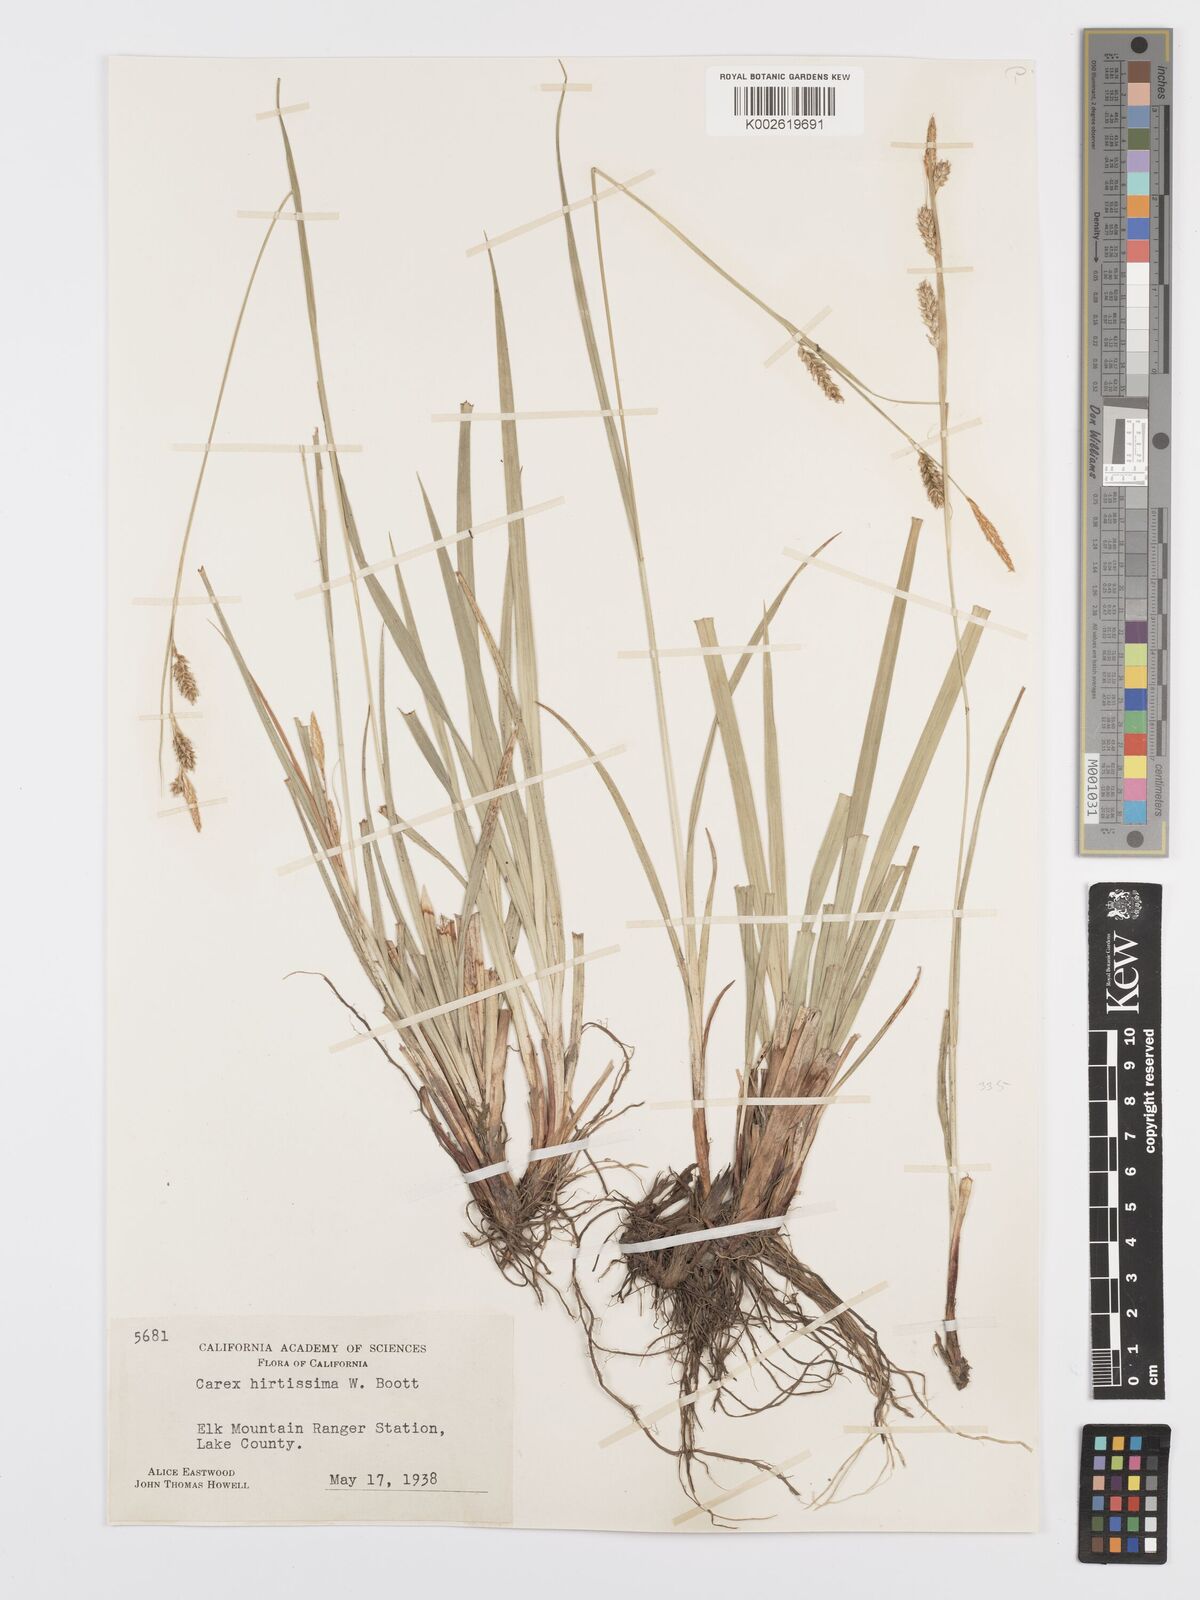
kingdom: Plantae
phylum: Tracheophyta
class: Liliopsida
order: Poales
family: Cyperaceae
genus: Carex
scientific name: Carex hirtissima
